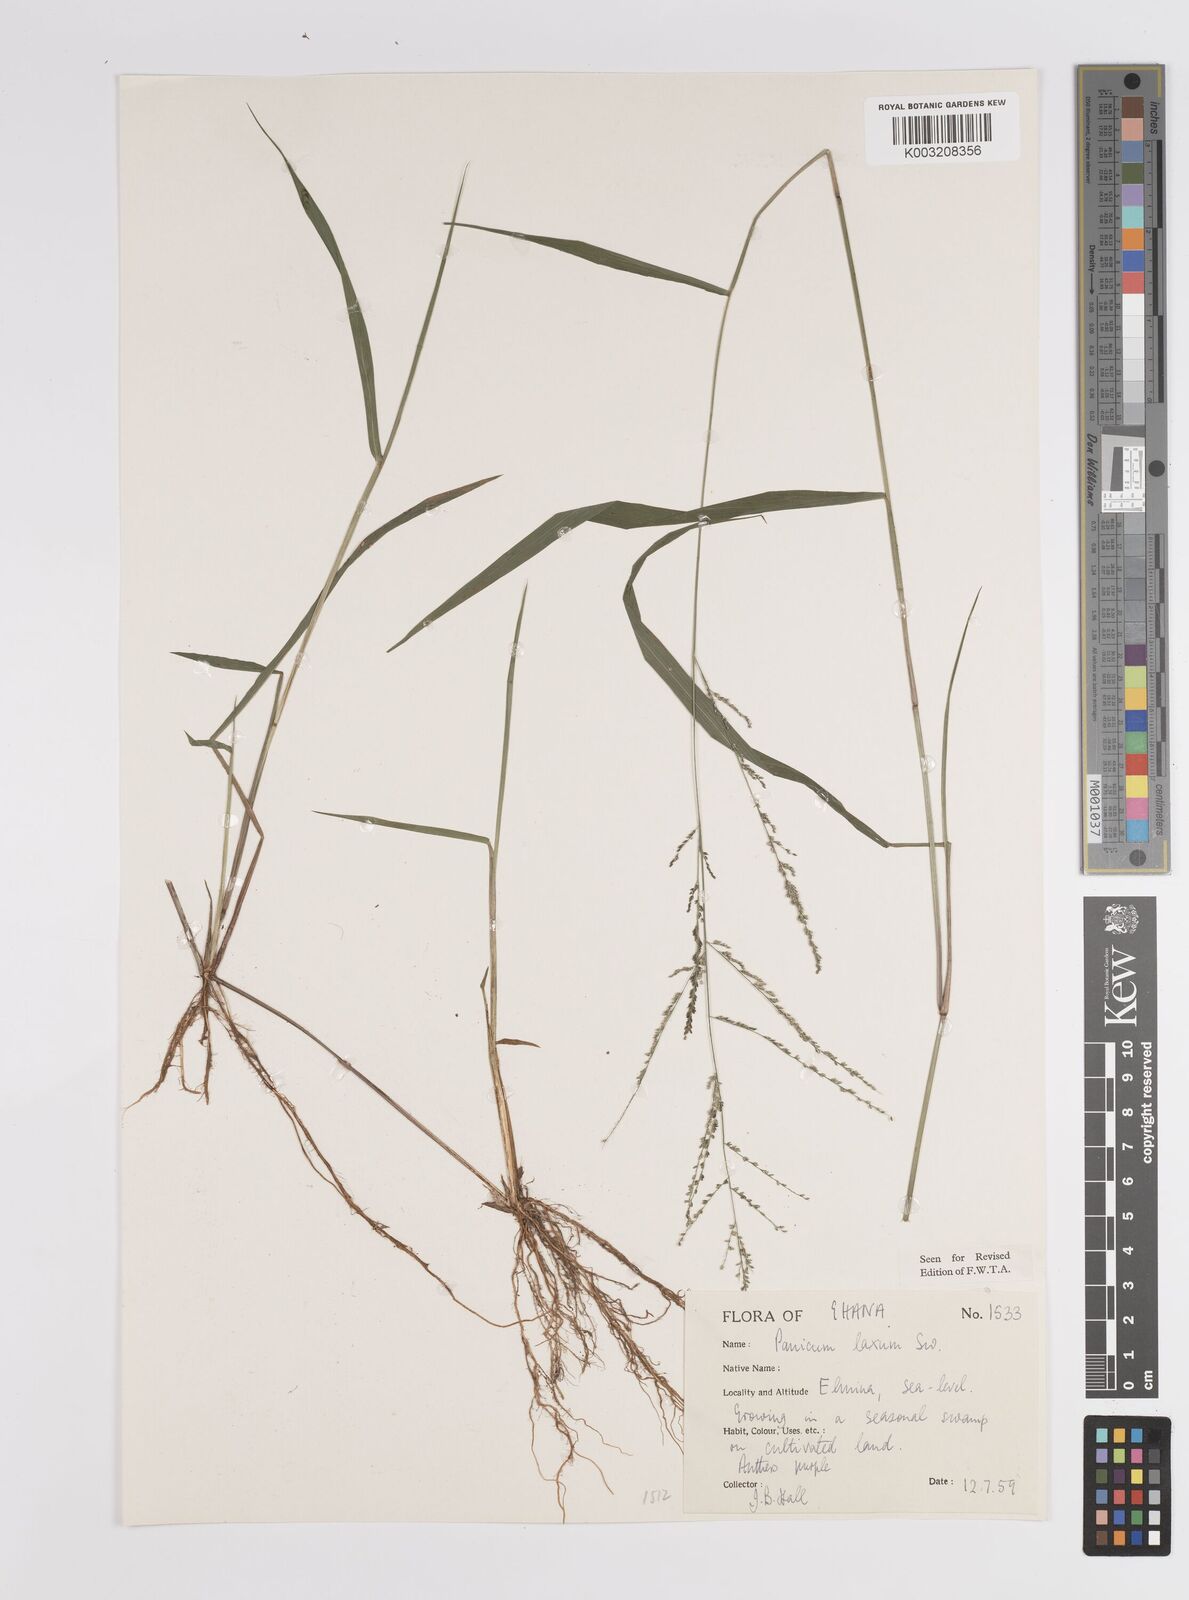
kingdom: Plantae
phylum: Tracheophyta
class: Liliopsida
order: Poales
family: Poaceae
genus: Steinchisma
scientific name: Steinchisma laxum
